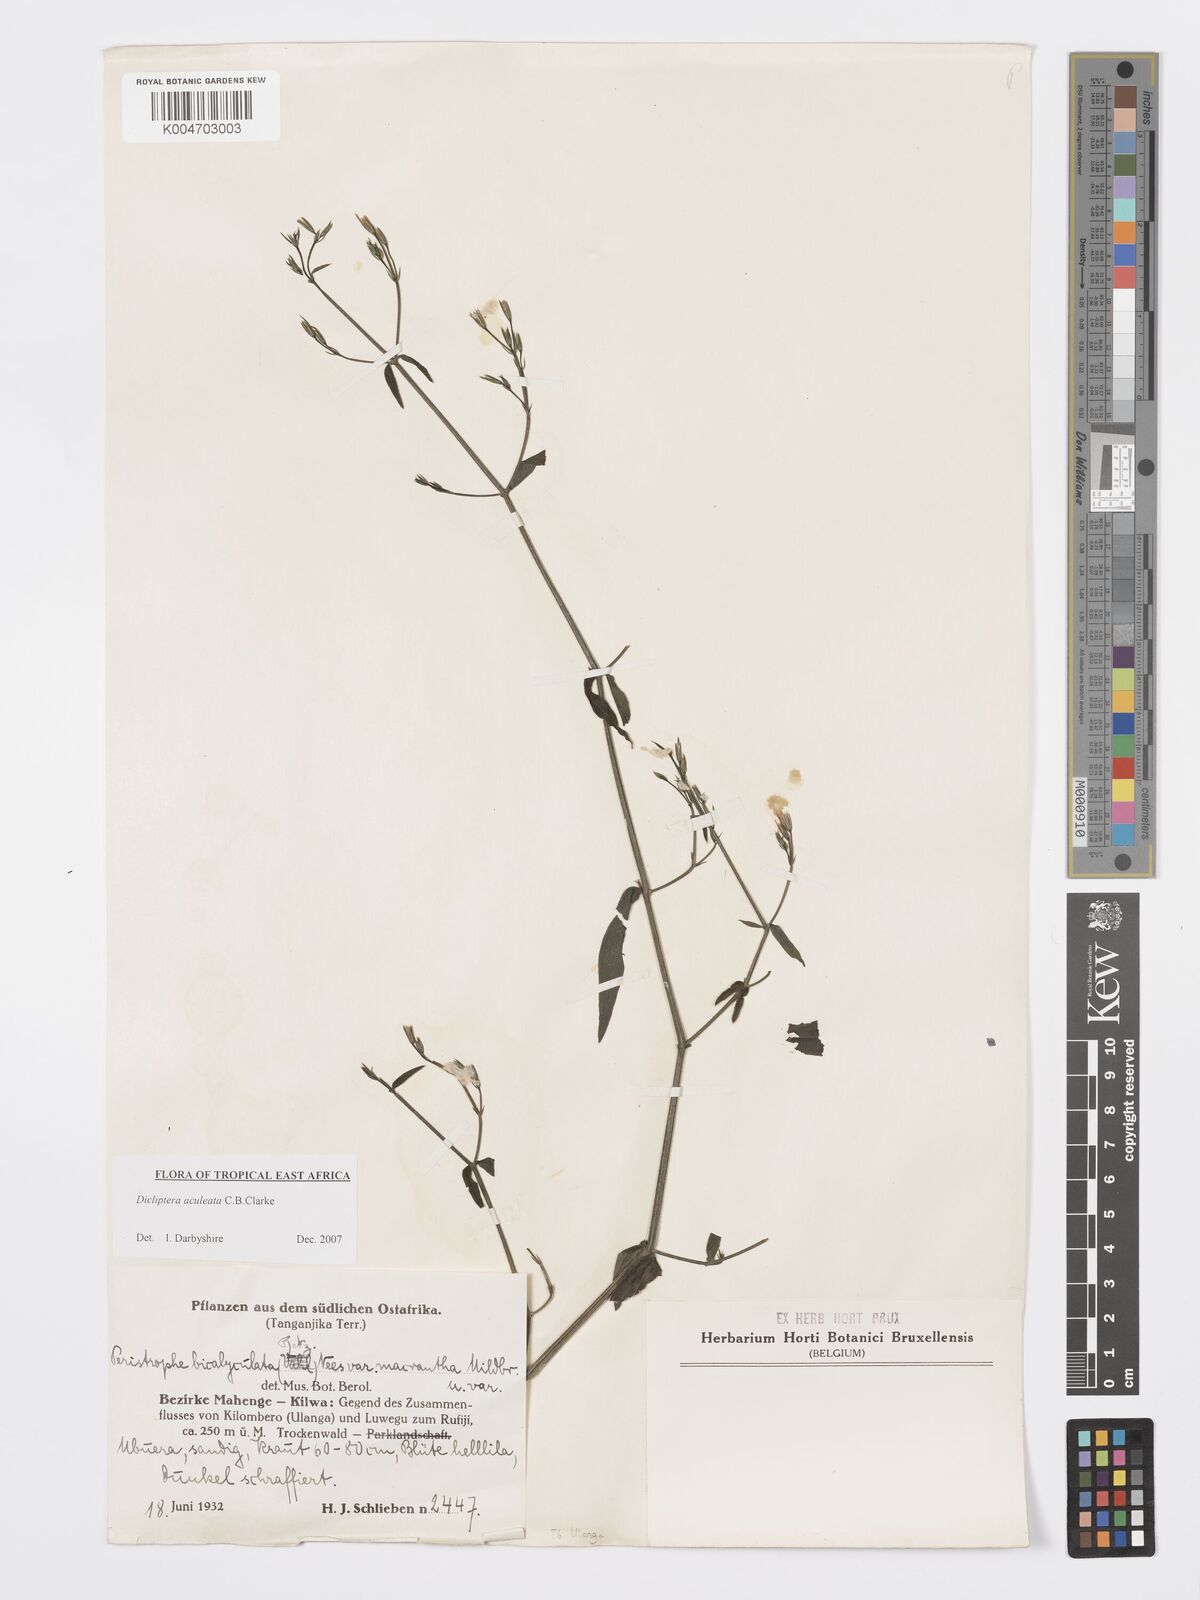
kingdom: Plantae
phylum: Tracheophyta
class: Magnoliopsida
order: Lamiales
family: Acanthaceae
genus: Dicliptera
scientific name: Dicliptera hensii
